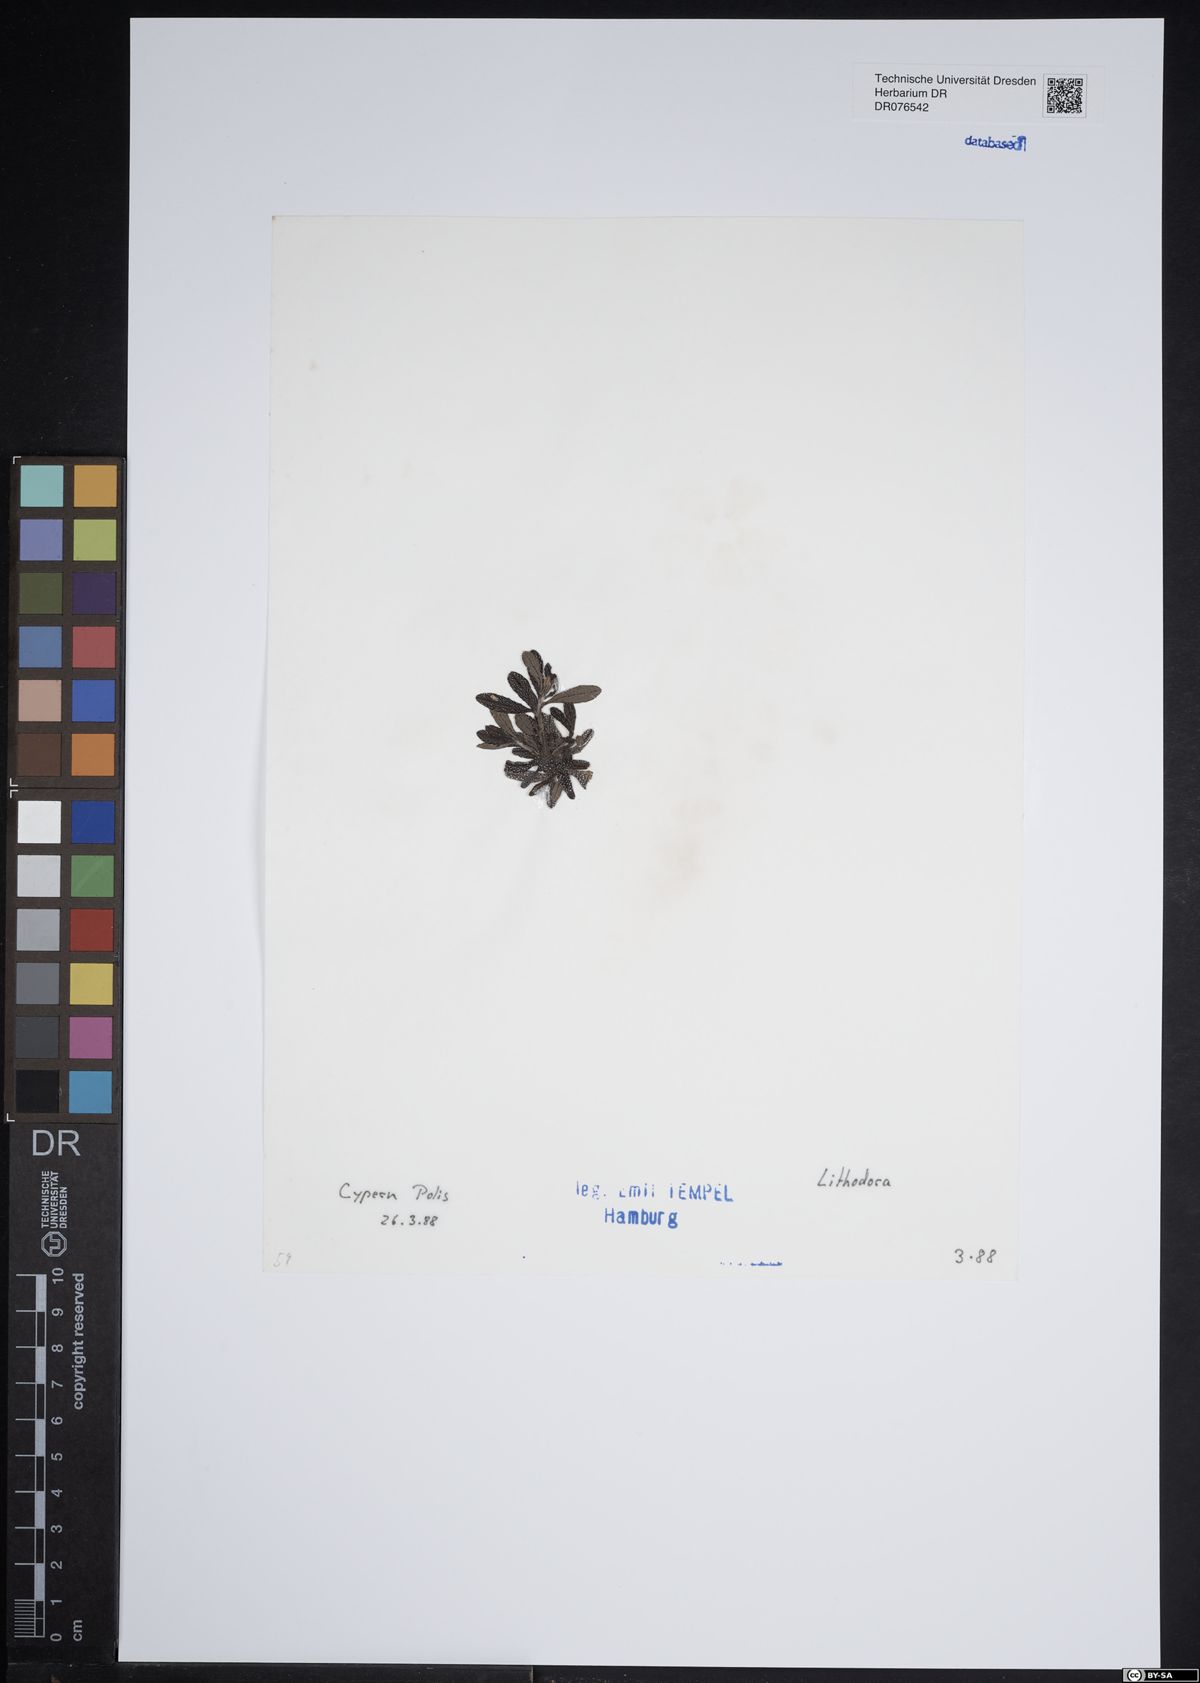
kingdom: Plantae
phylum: Tracheophyta
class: Magnoliopsida
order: Boraginales
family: Boraginaceae
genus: Lithodora
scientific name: Lithodora
